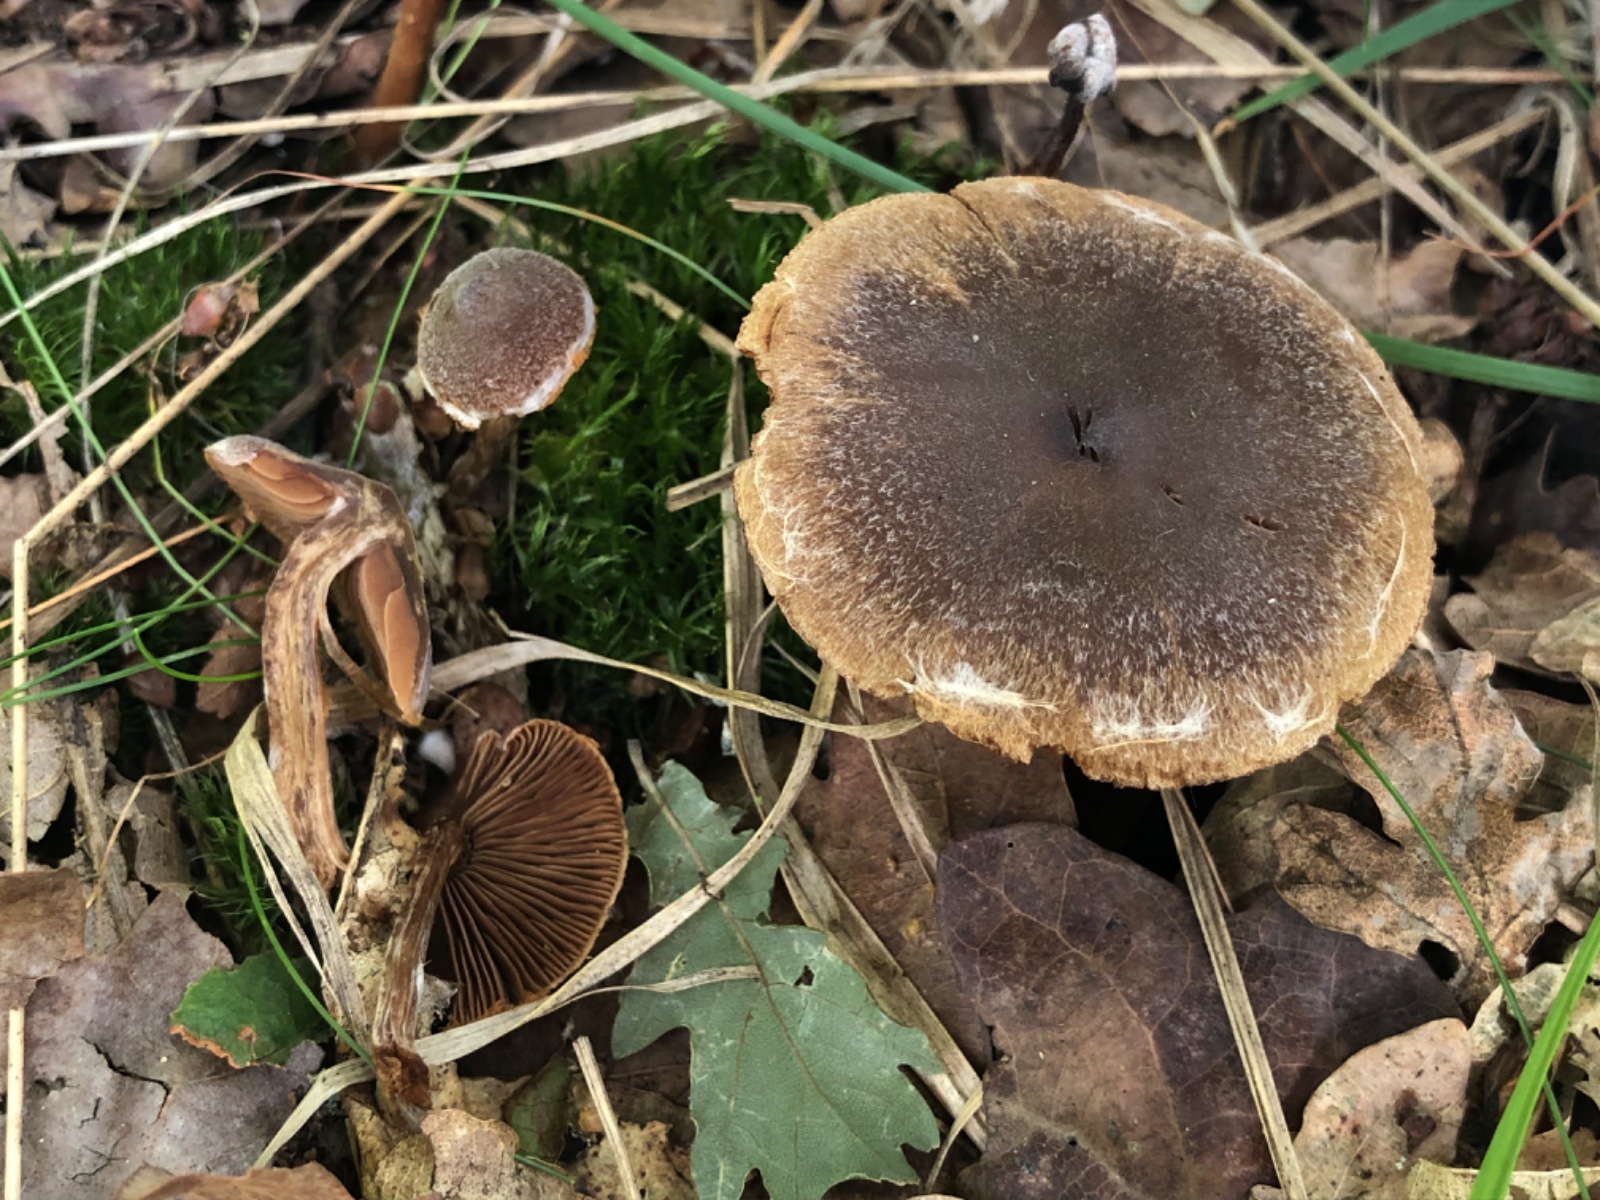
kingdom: Fungi
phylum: Basidiomycota
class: Agaricomycetes
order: Agaricales
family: Cortinariaceae
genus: Cortinarius
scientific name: Cortinarius
